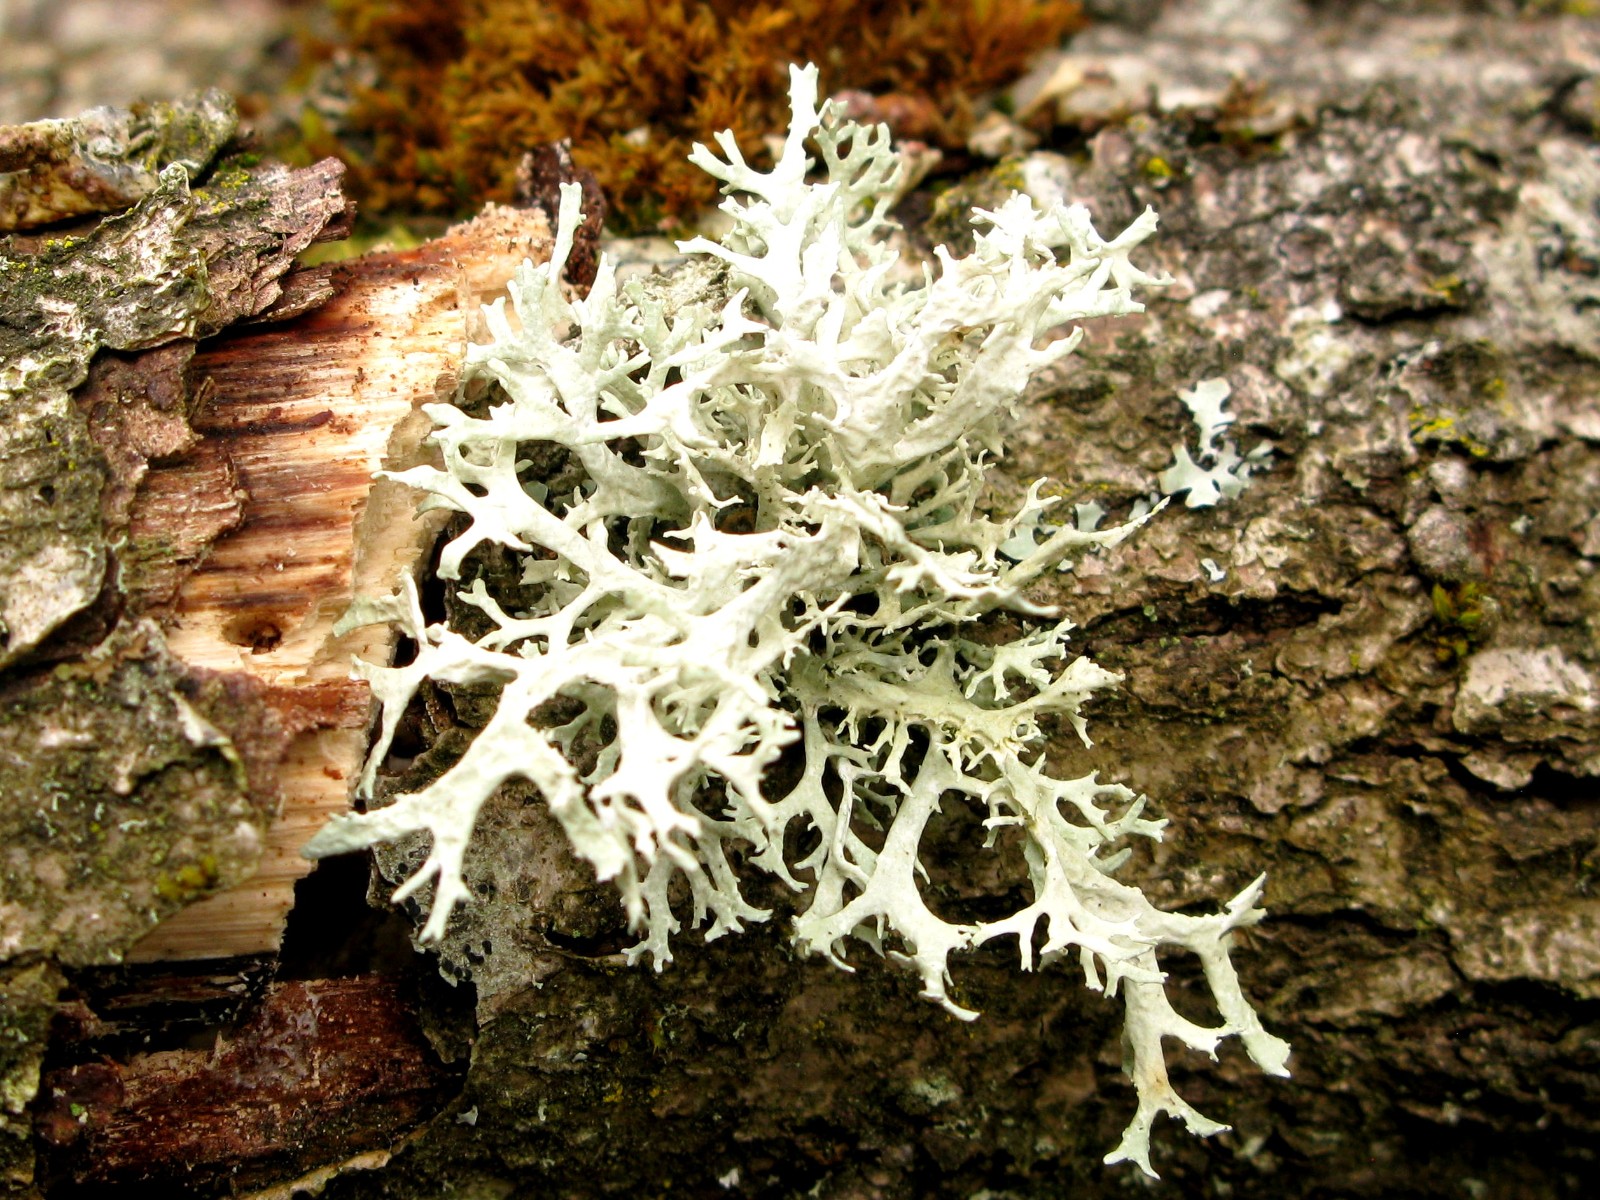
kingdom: Fungi
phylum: Ascomycota
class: Lecanoromycetes
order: Lecanorales
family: Parmeliaceae
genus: Evernia
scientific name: Evernia prunastri
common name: almindelig slåenlav
